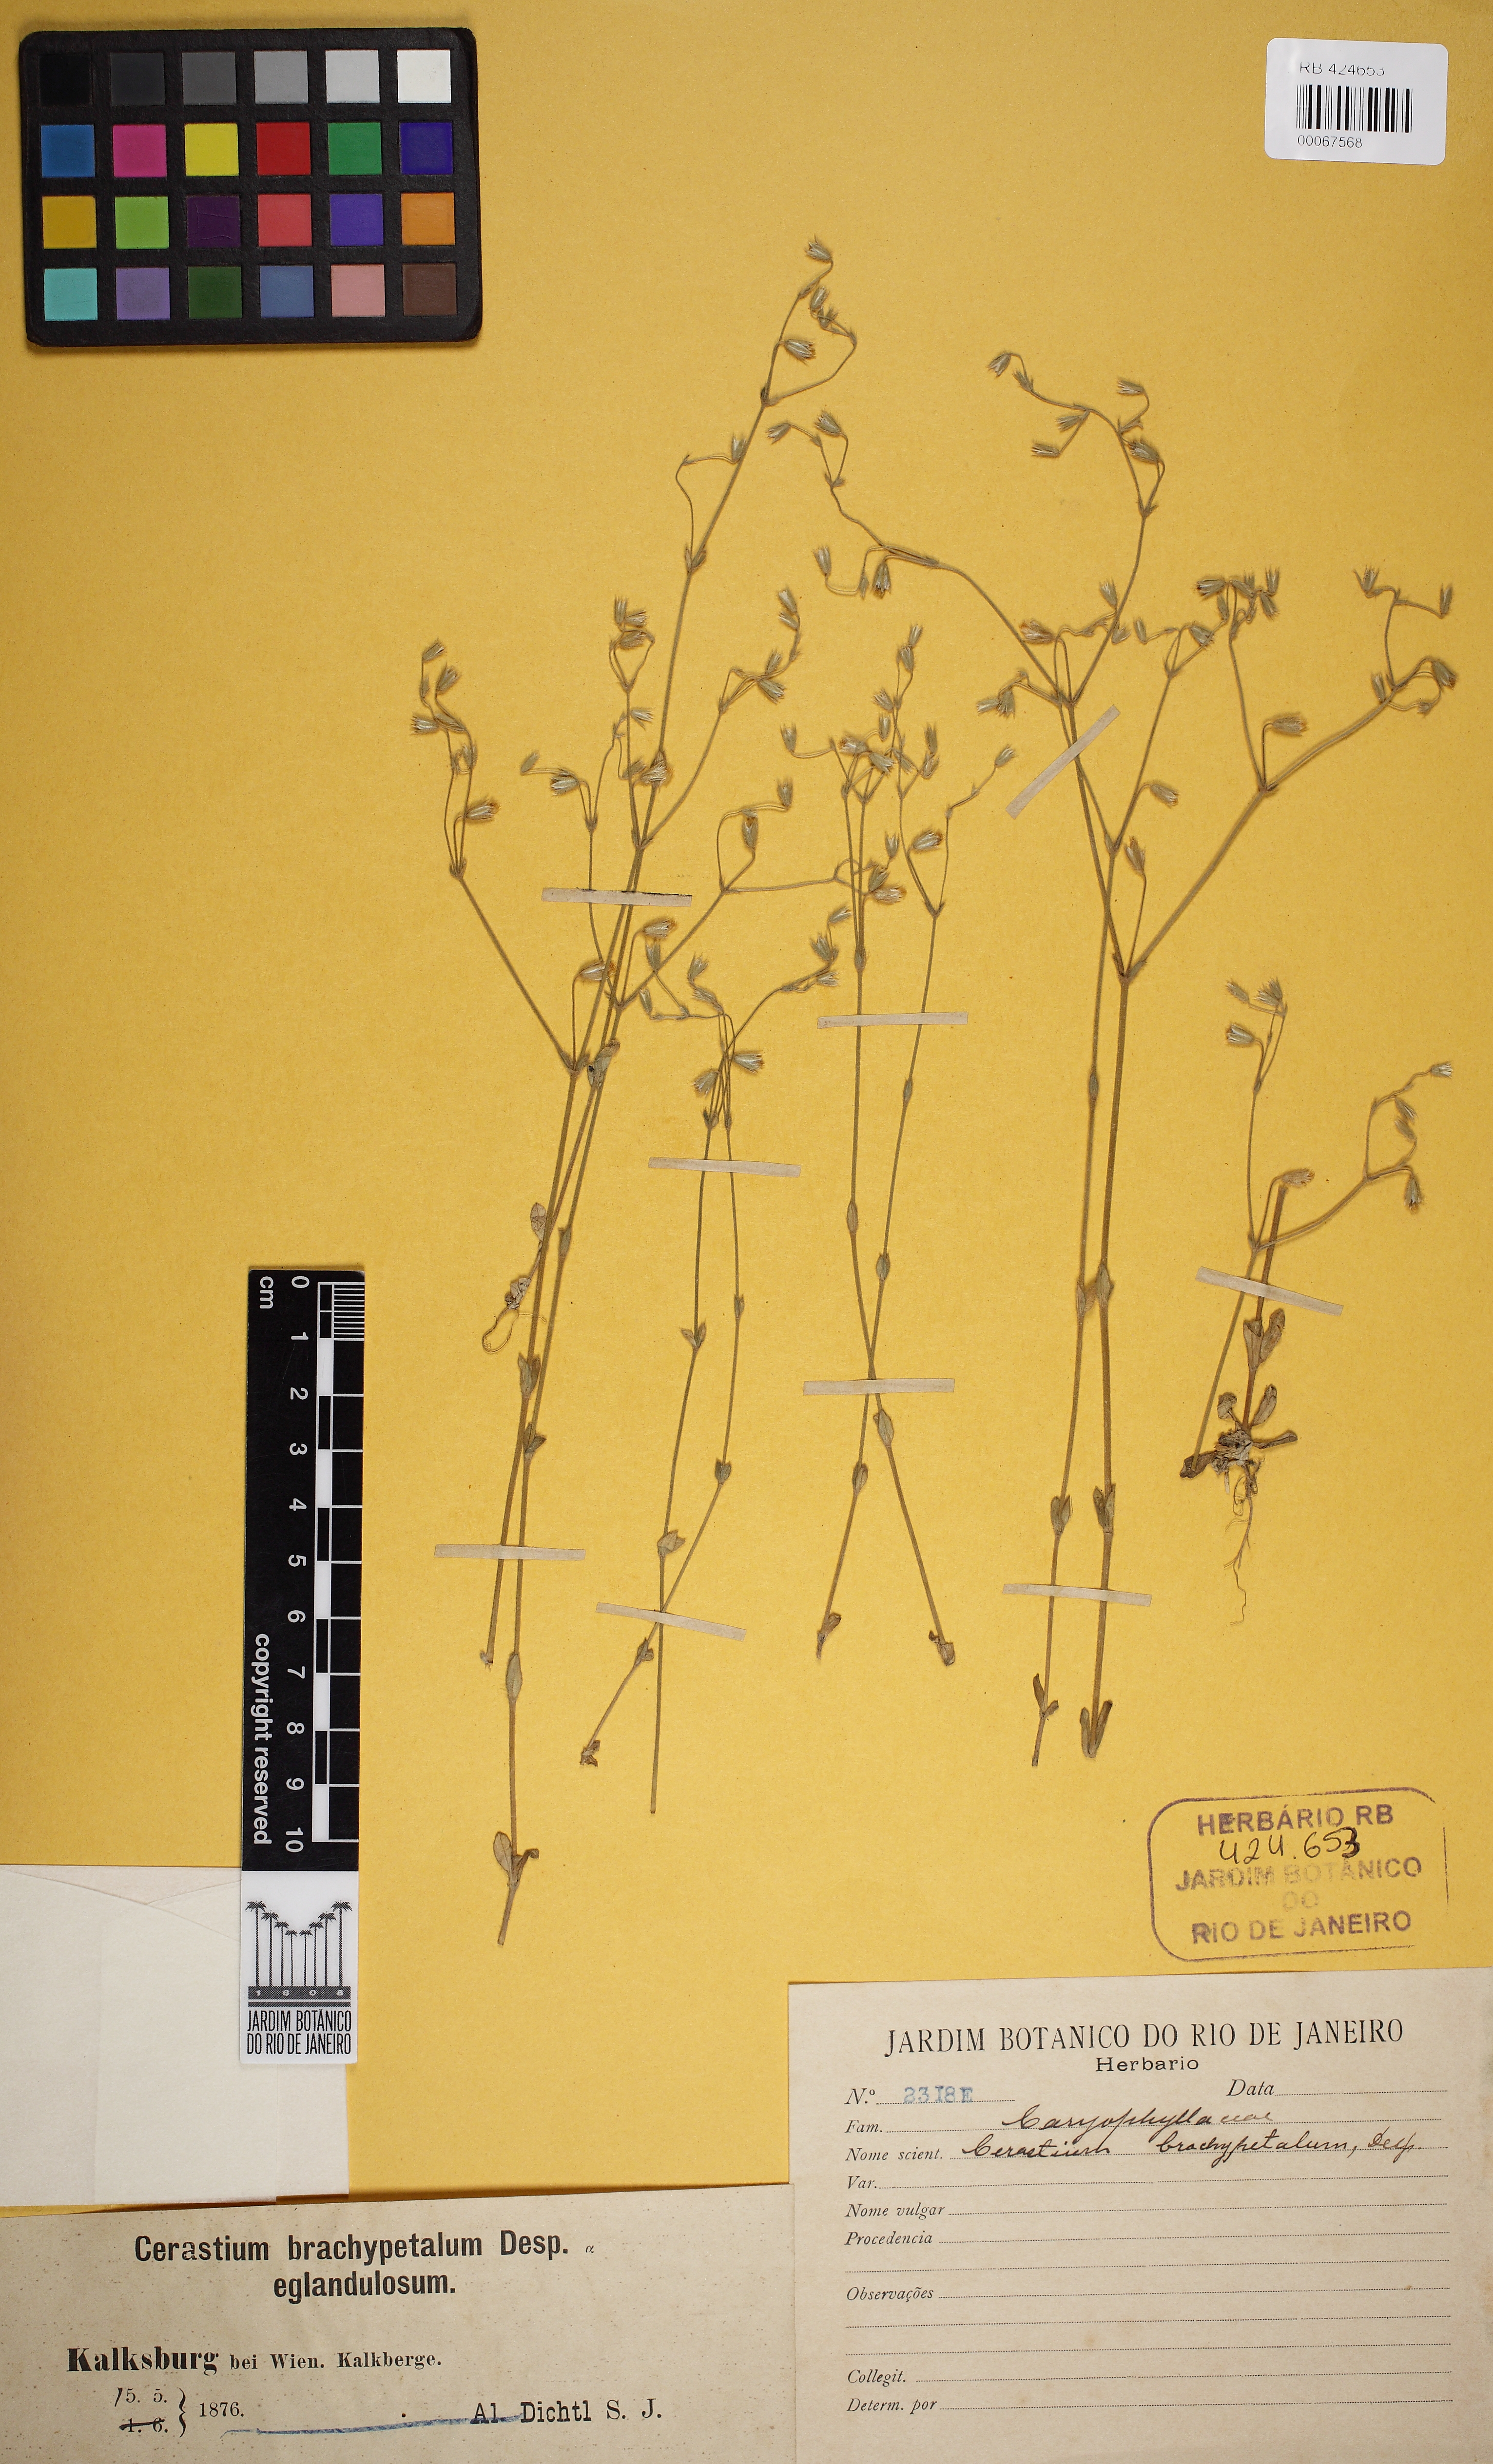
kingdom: Plantae
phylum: Tracheophyta
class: Magnoliopsida
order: Caryophyllales
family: Caryophyllaceae
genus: Cerastium
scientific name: Cerastium brachypetalum
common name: Grey mouse-ear
